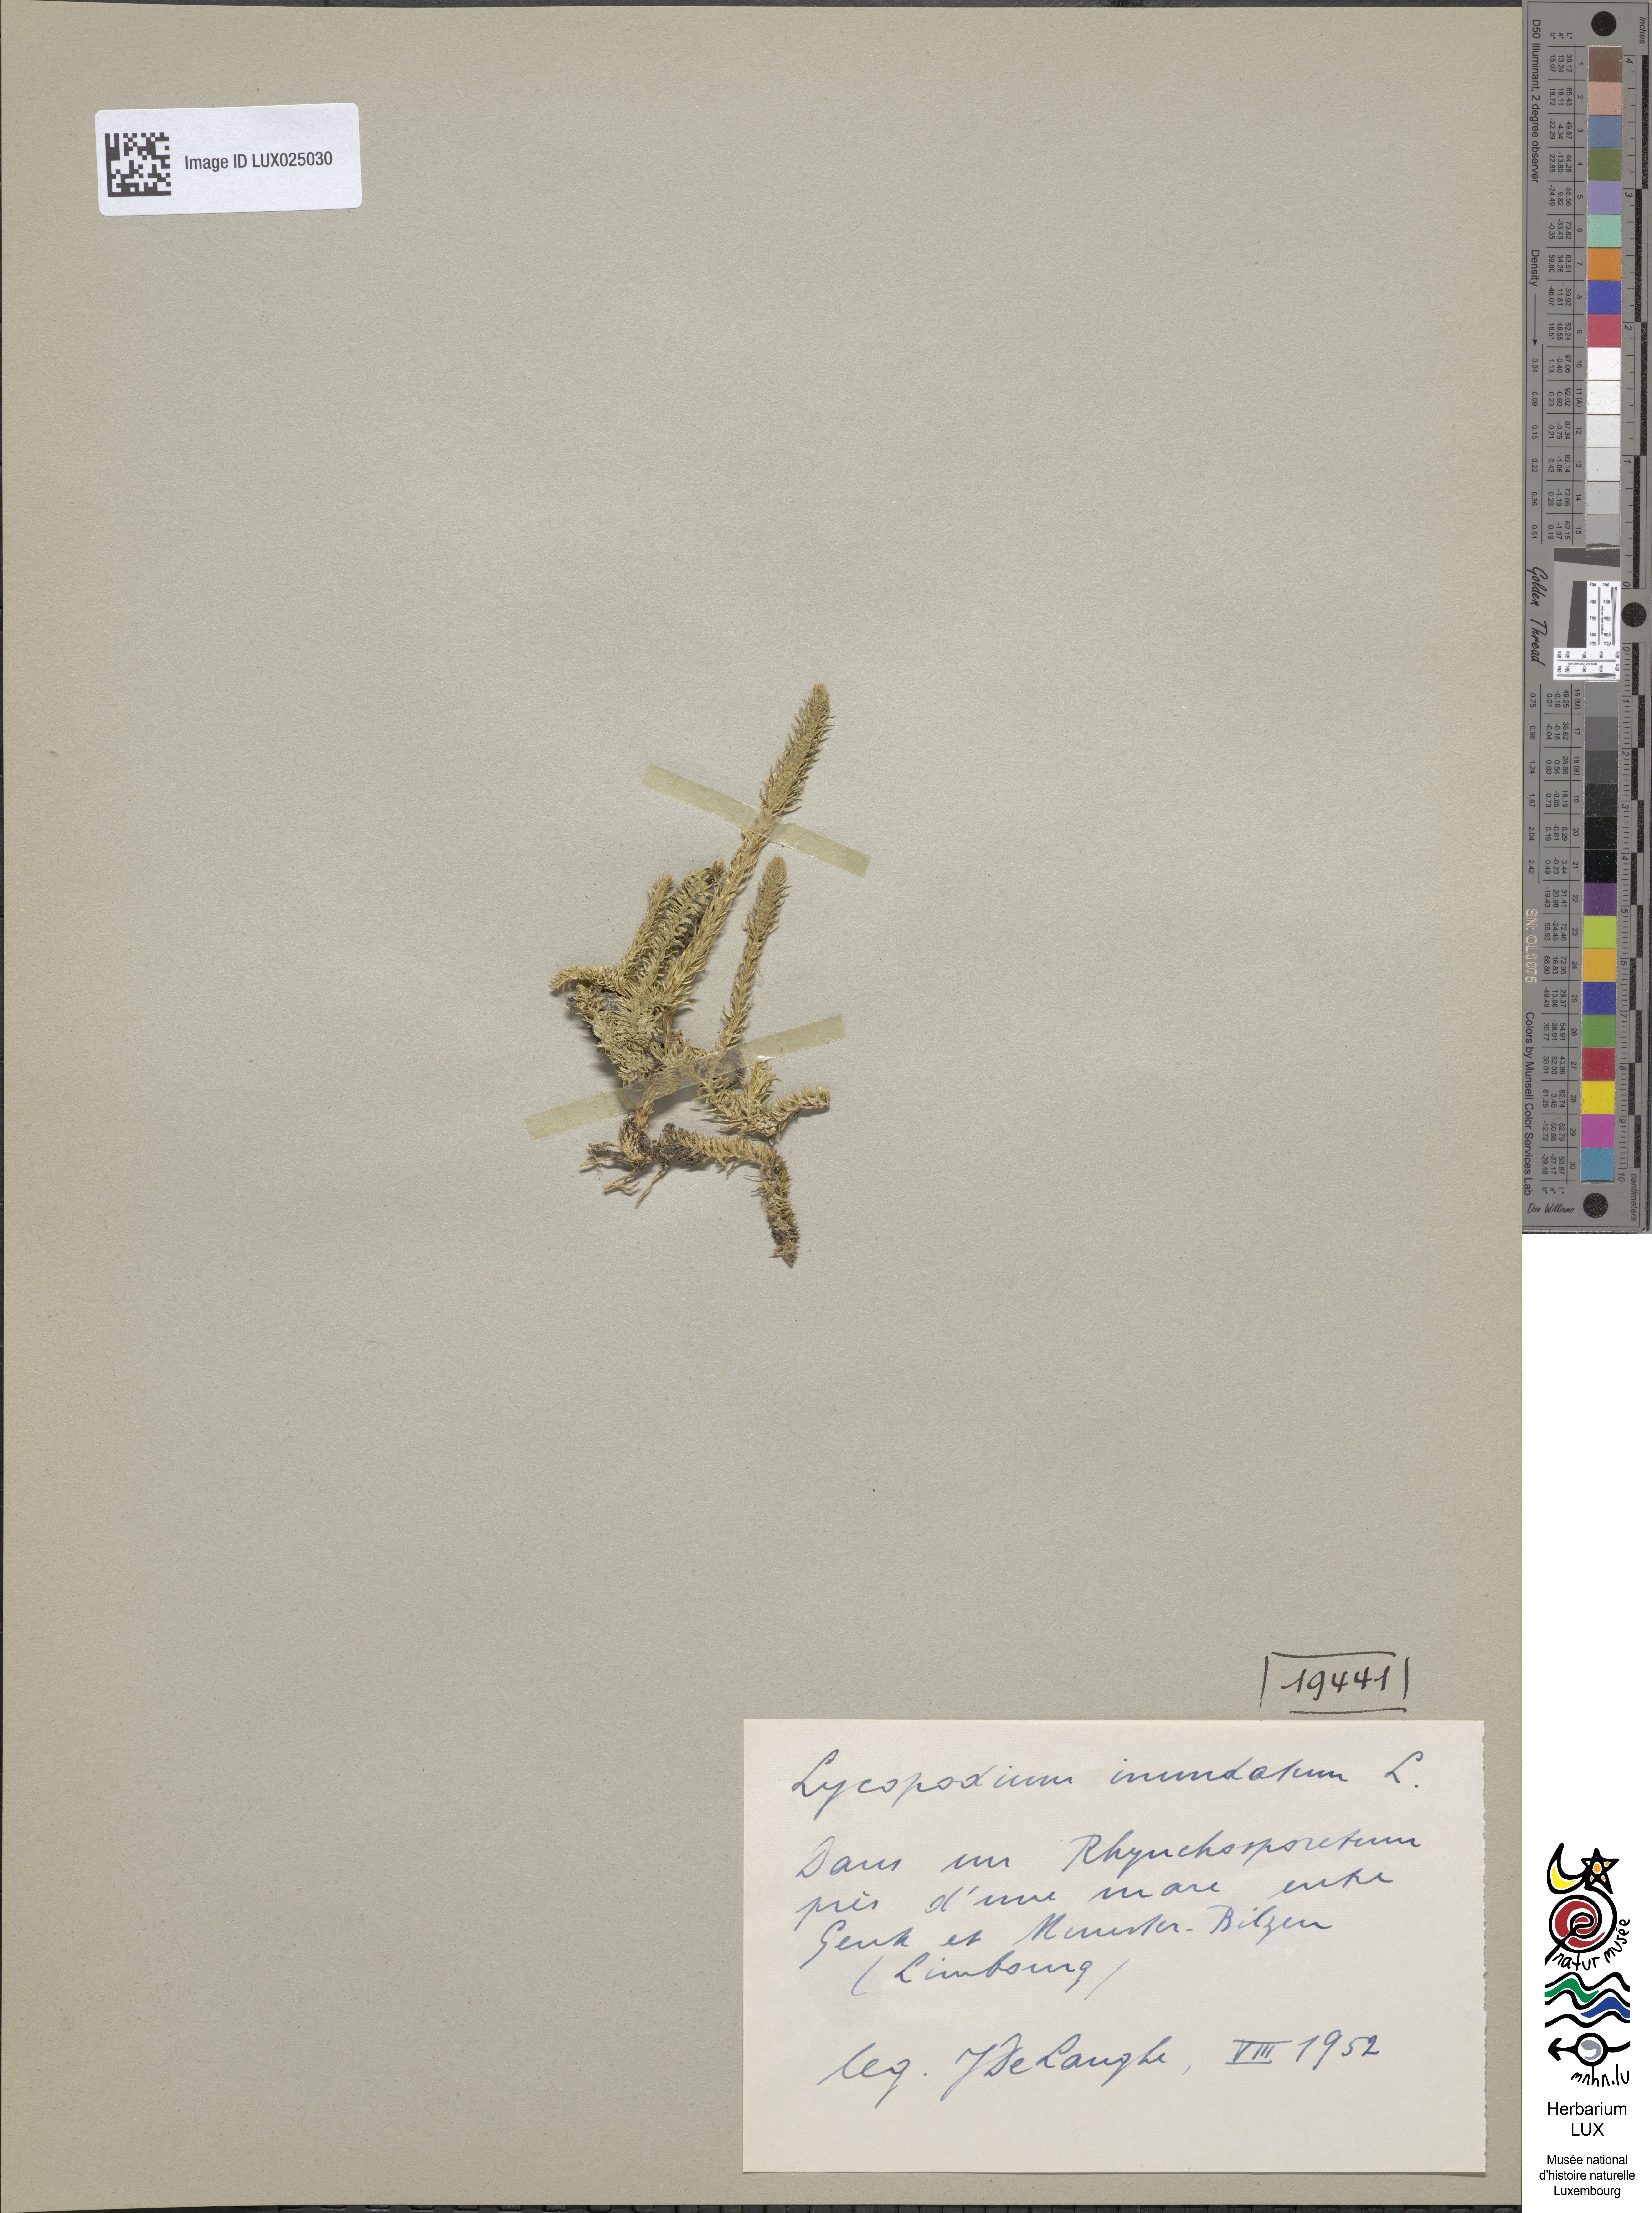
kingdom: Plantae
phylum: Tracheophyta
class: Lycopodiopsida
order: Lycopodiales
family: Lycopodiaceae
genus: Lycopodiella
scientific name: Lycopodiella inundata
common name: Marsh clubmoss
